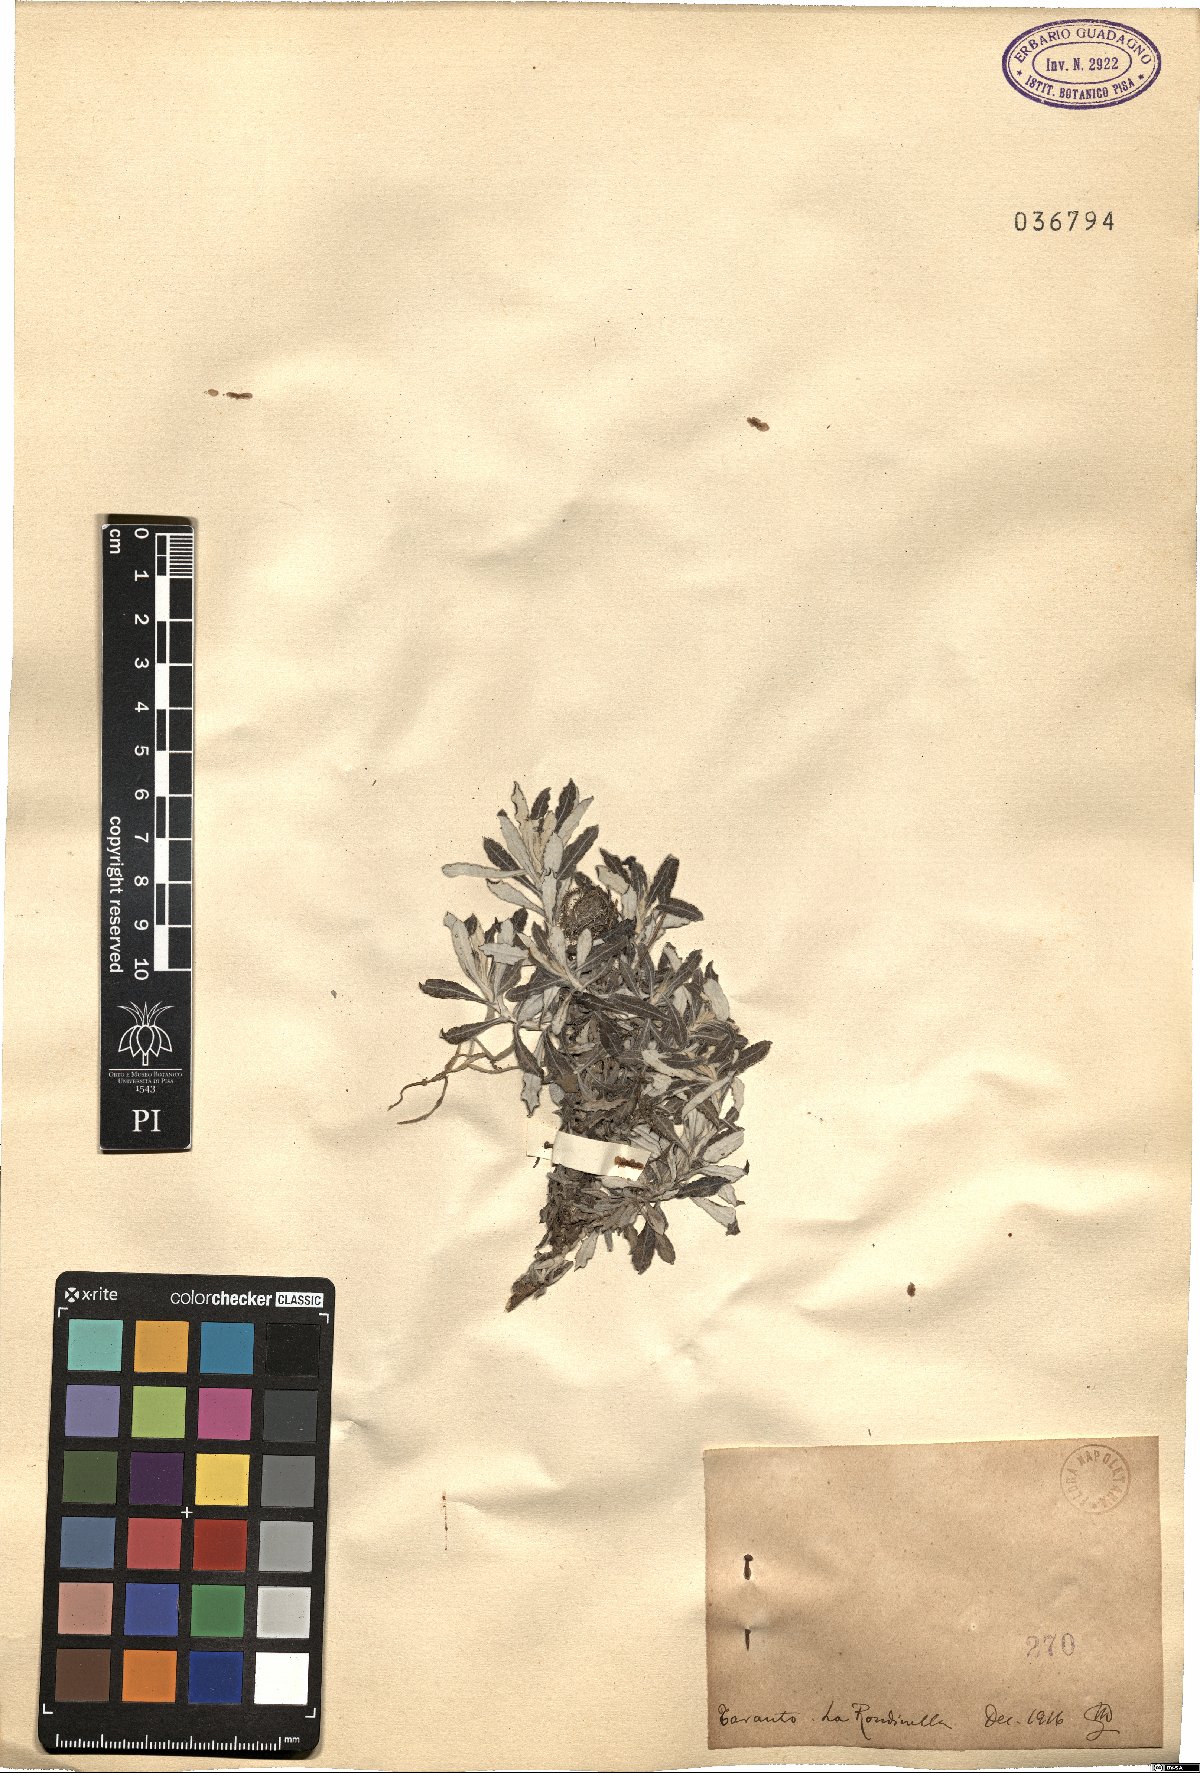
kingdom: Plantae
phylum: Tracheophyta
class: Magnoliopsida
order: Asterales
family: Asteraceae
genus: Phagnalon
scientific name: Phagnalon
